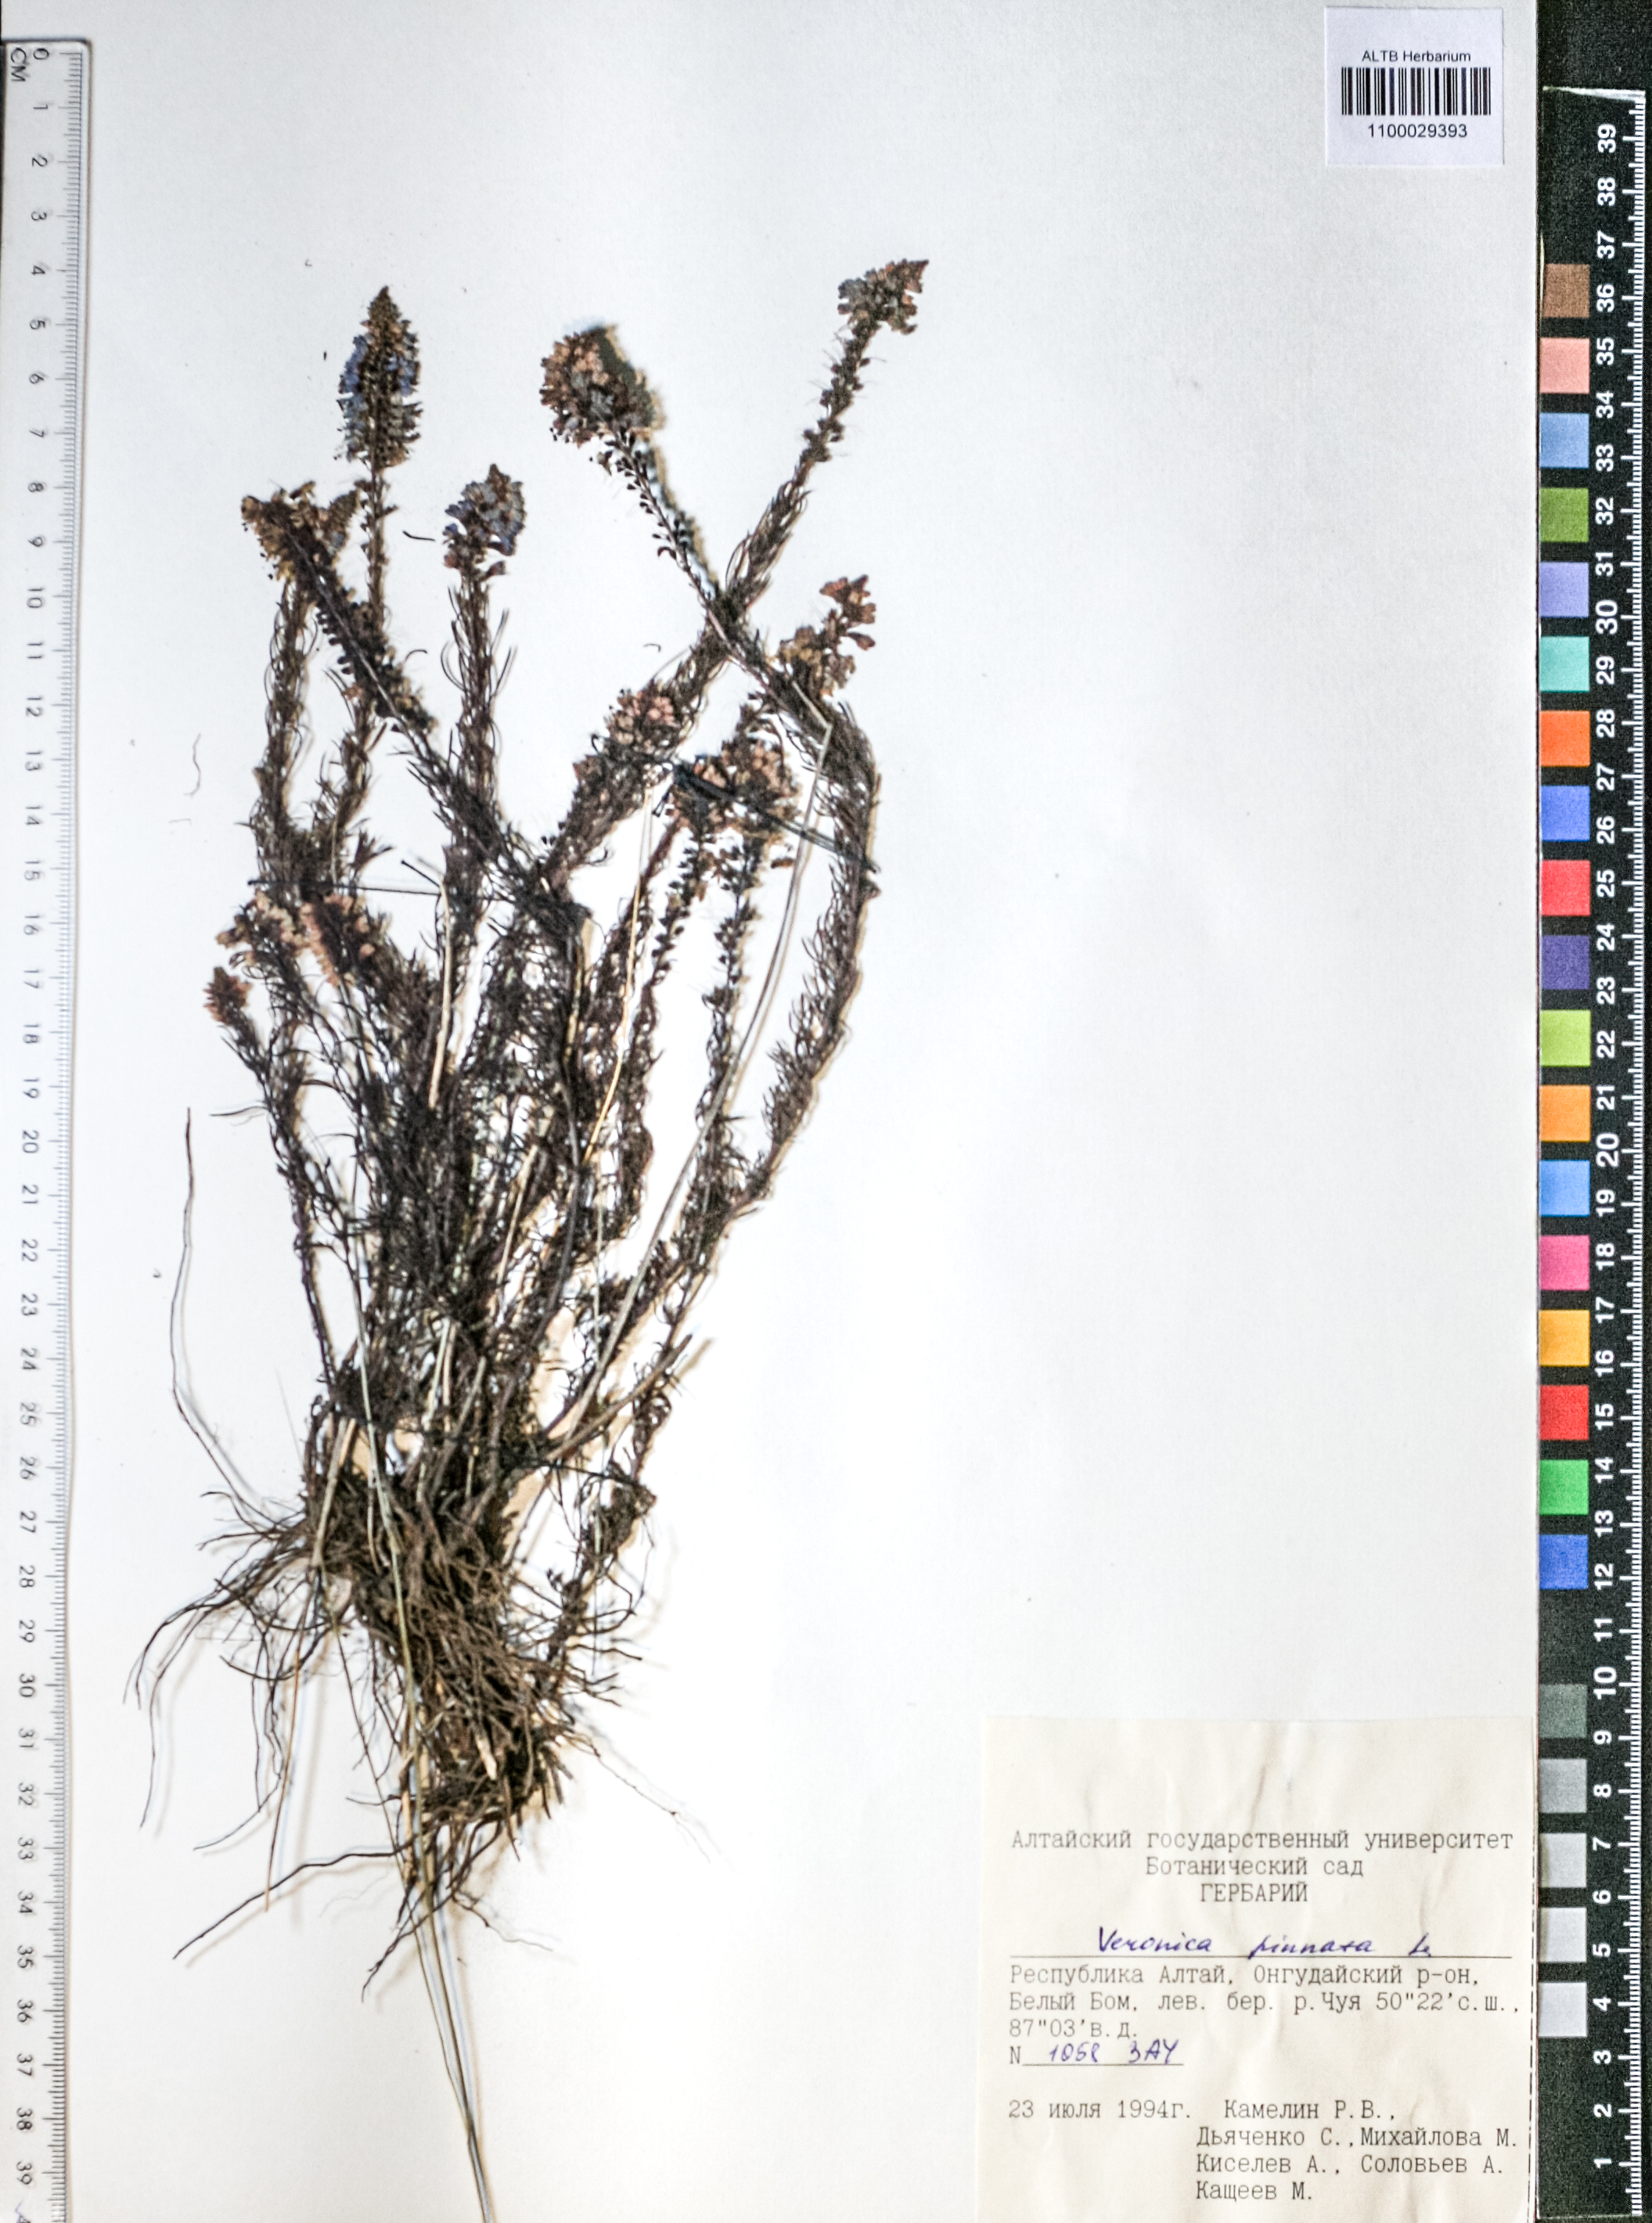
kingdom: Plantae
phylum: Tracheophyta
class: Magnoliopsida
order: Lamiales
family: Scrophulariaceae
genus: Scrophularia
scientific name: Scrophularia incisa
